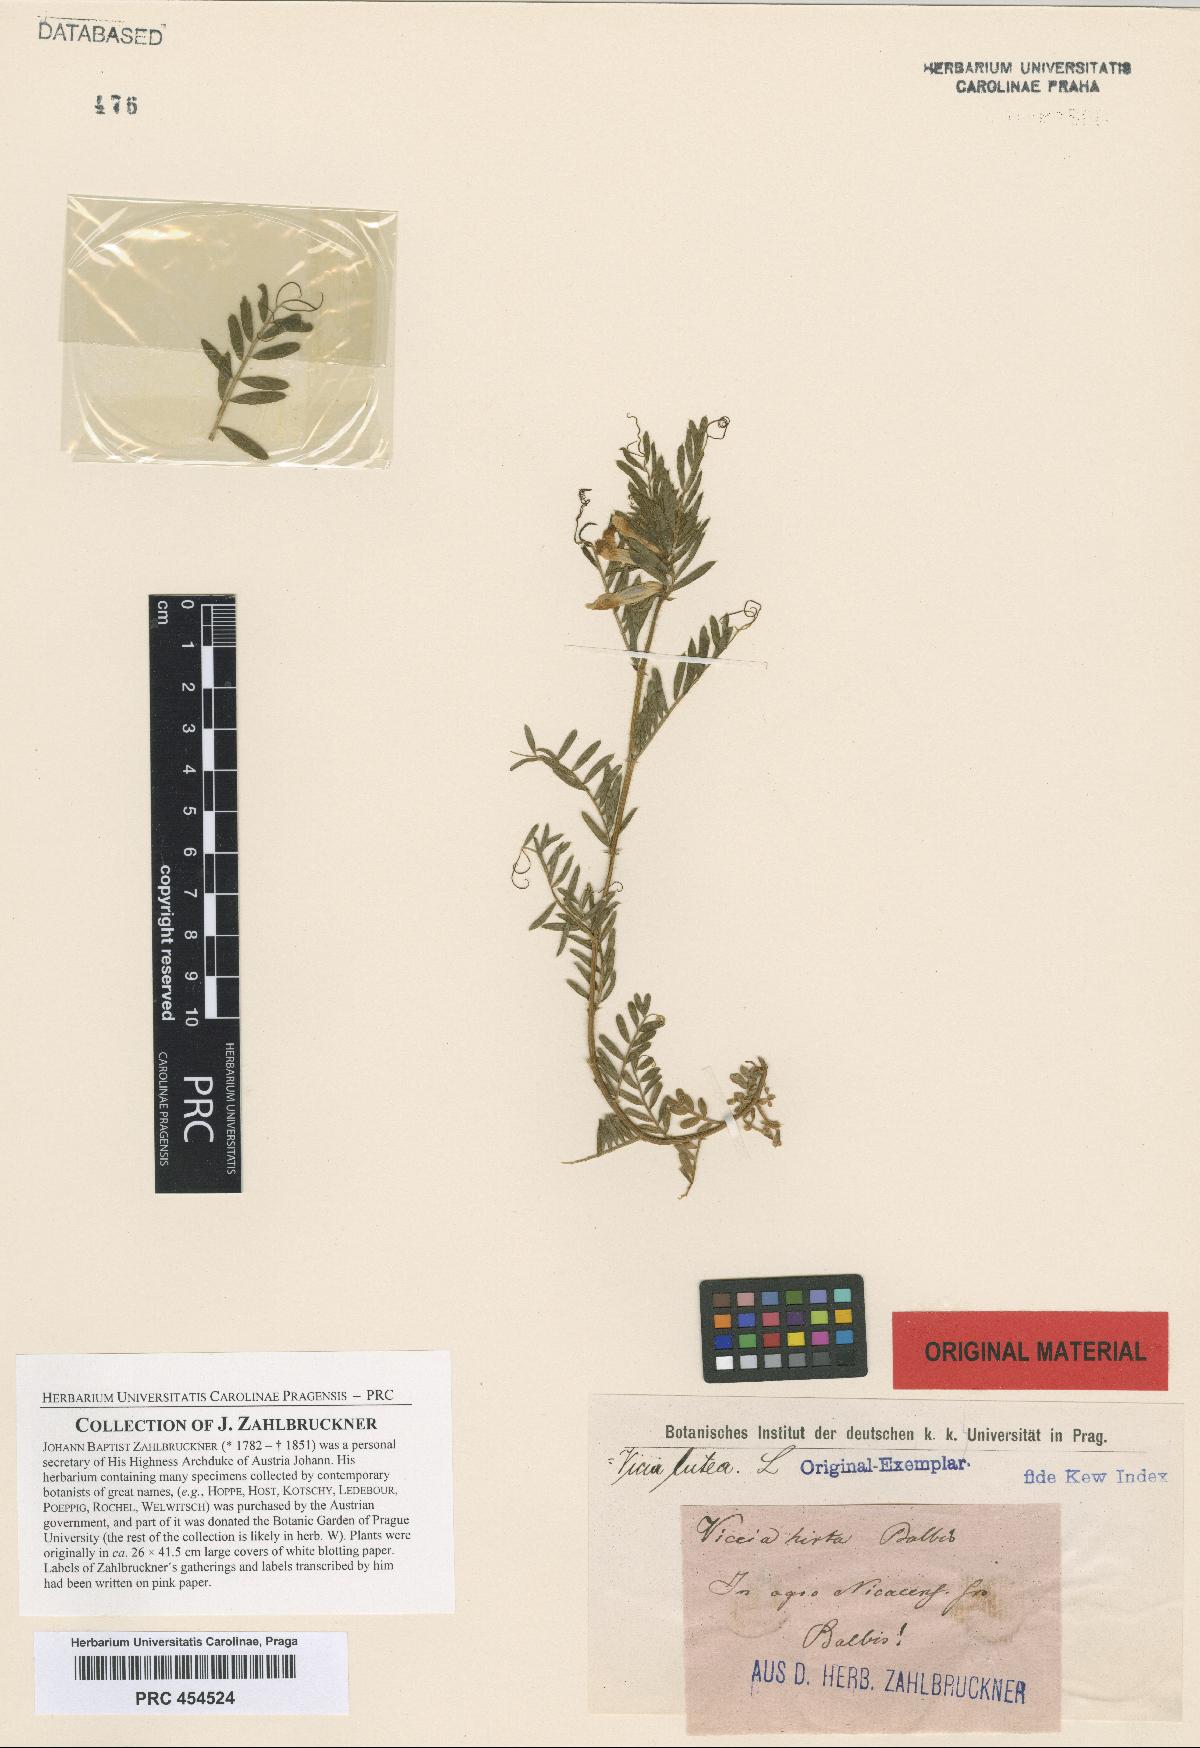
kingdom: Plantae
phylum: Tracheophyta
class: Magnoliopsida
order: Fabales
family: Fabaceae
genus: Vicia
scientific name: Vicia lutea
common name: Smooth yellow vetch
